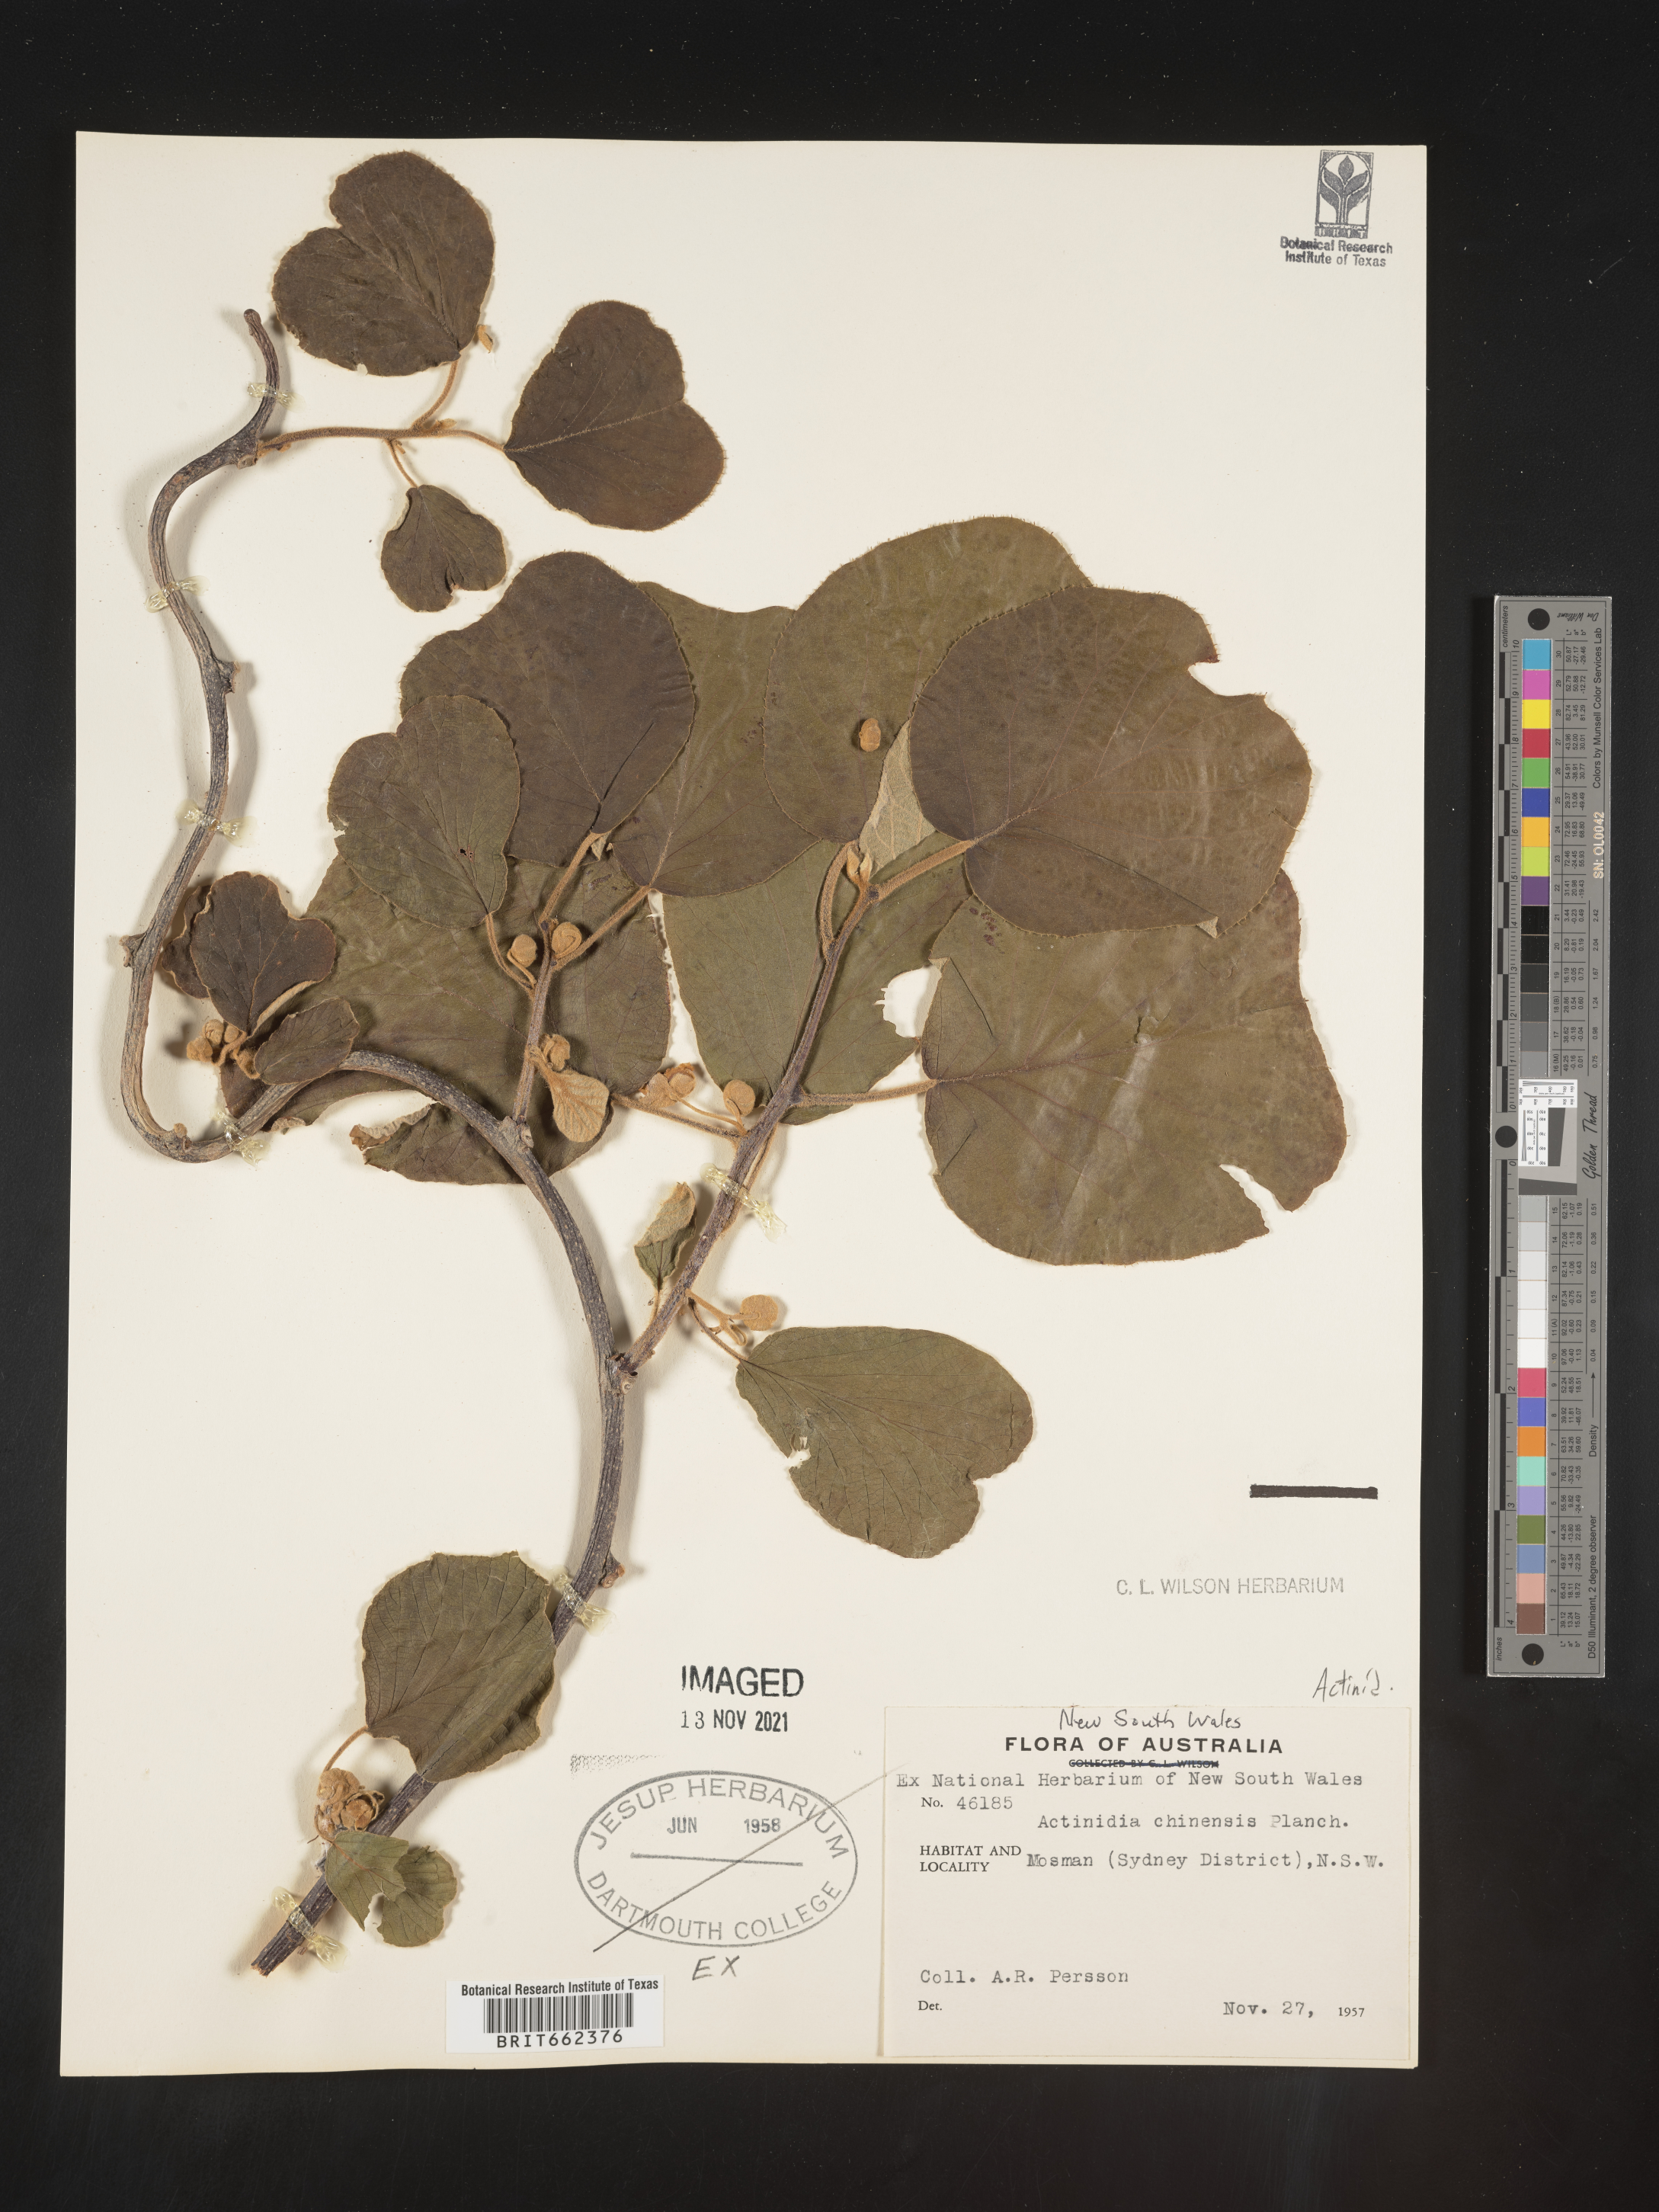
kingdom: Plantae
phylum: Tracheophyta
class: Magnoliopsida
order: Ericales
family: Actinidiaceae
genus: Actinidia
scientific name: Actinidia
